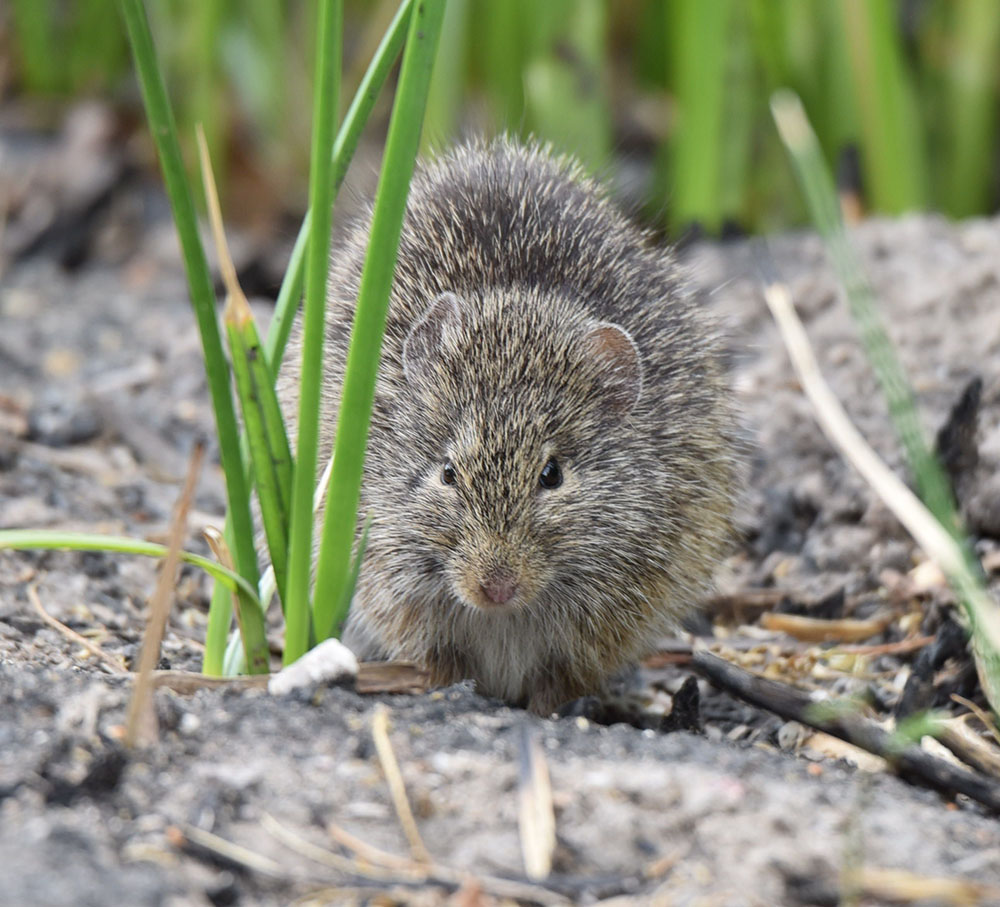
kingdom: Animalia
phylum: Chordata
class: Mammalia
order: Rodentia
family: Cricetidae
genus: Sigmodon
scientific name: Sigmodon arizonae
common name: Arizona cotton rat
